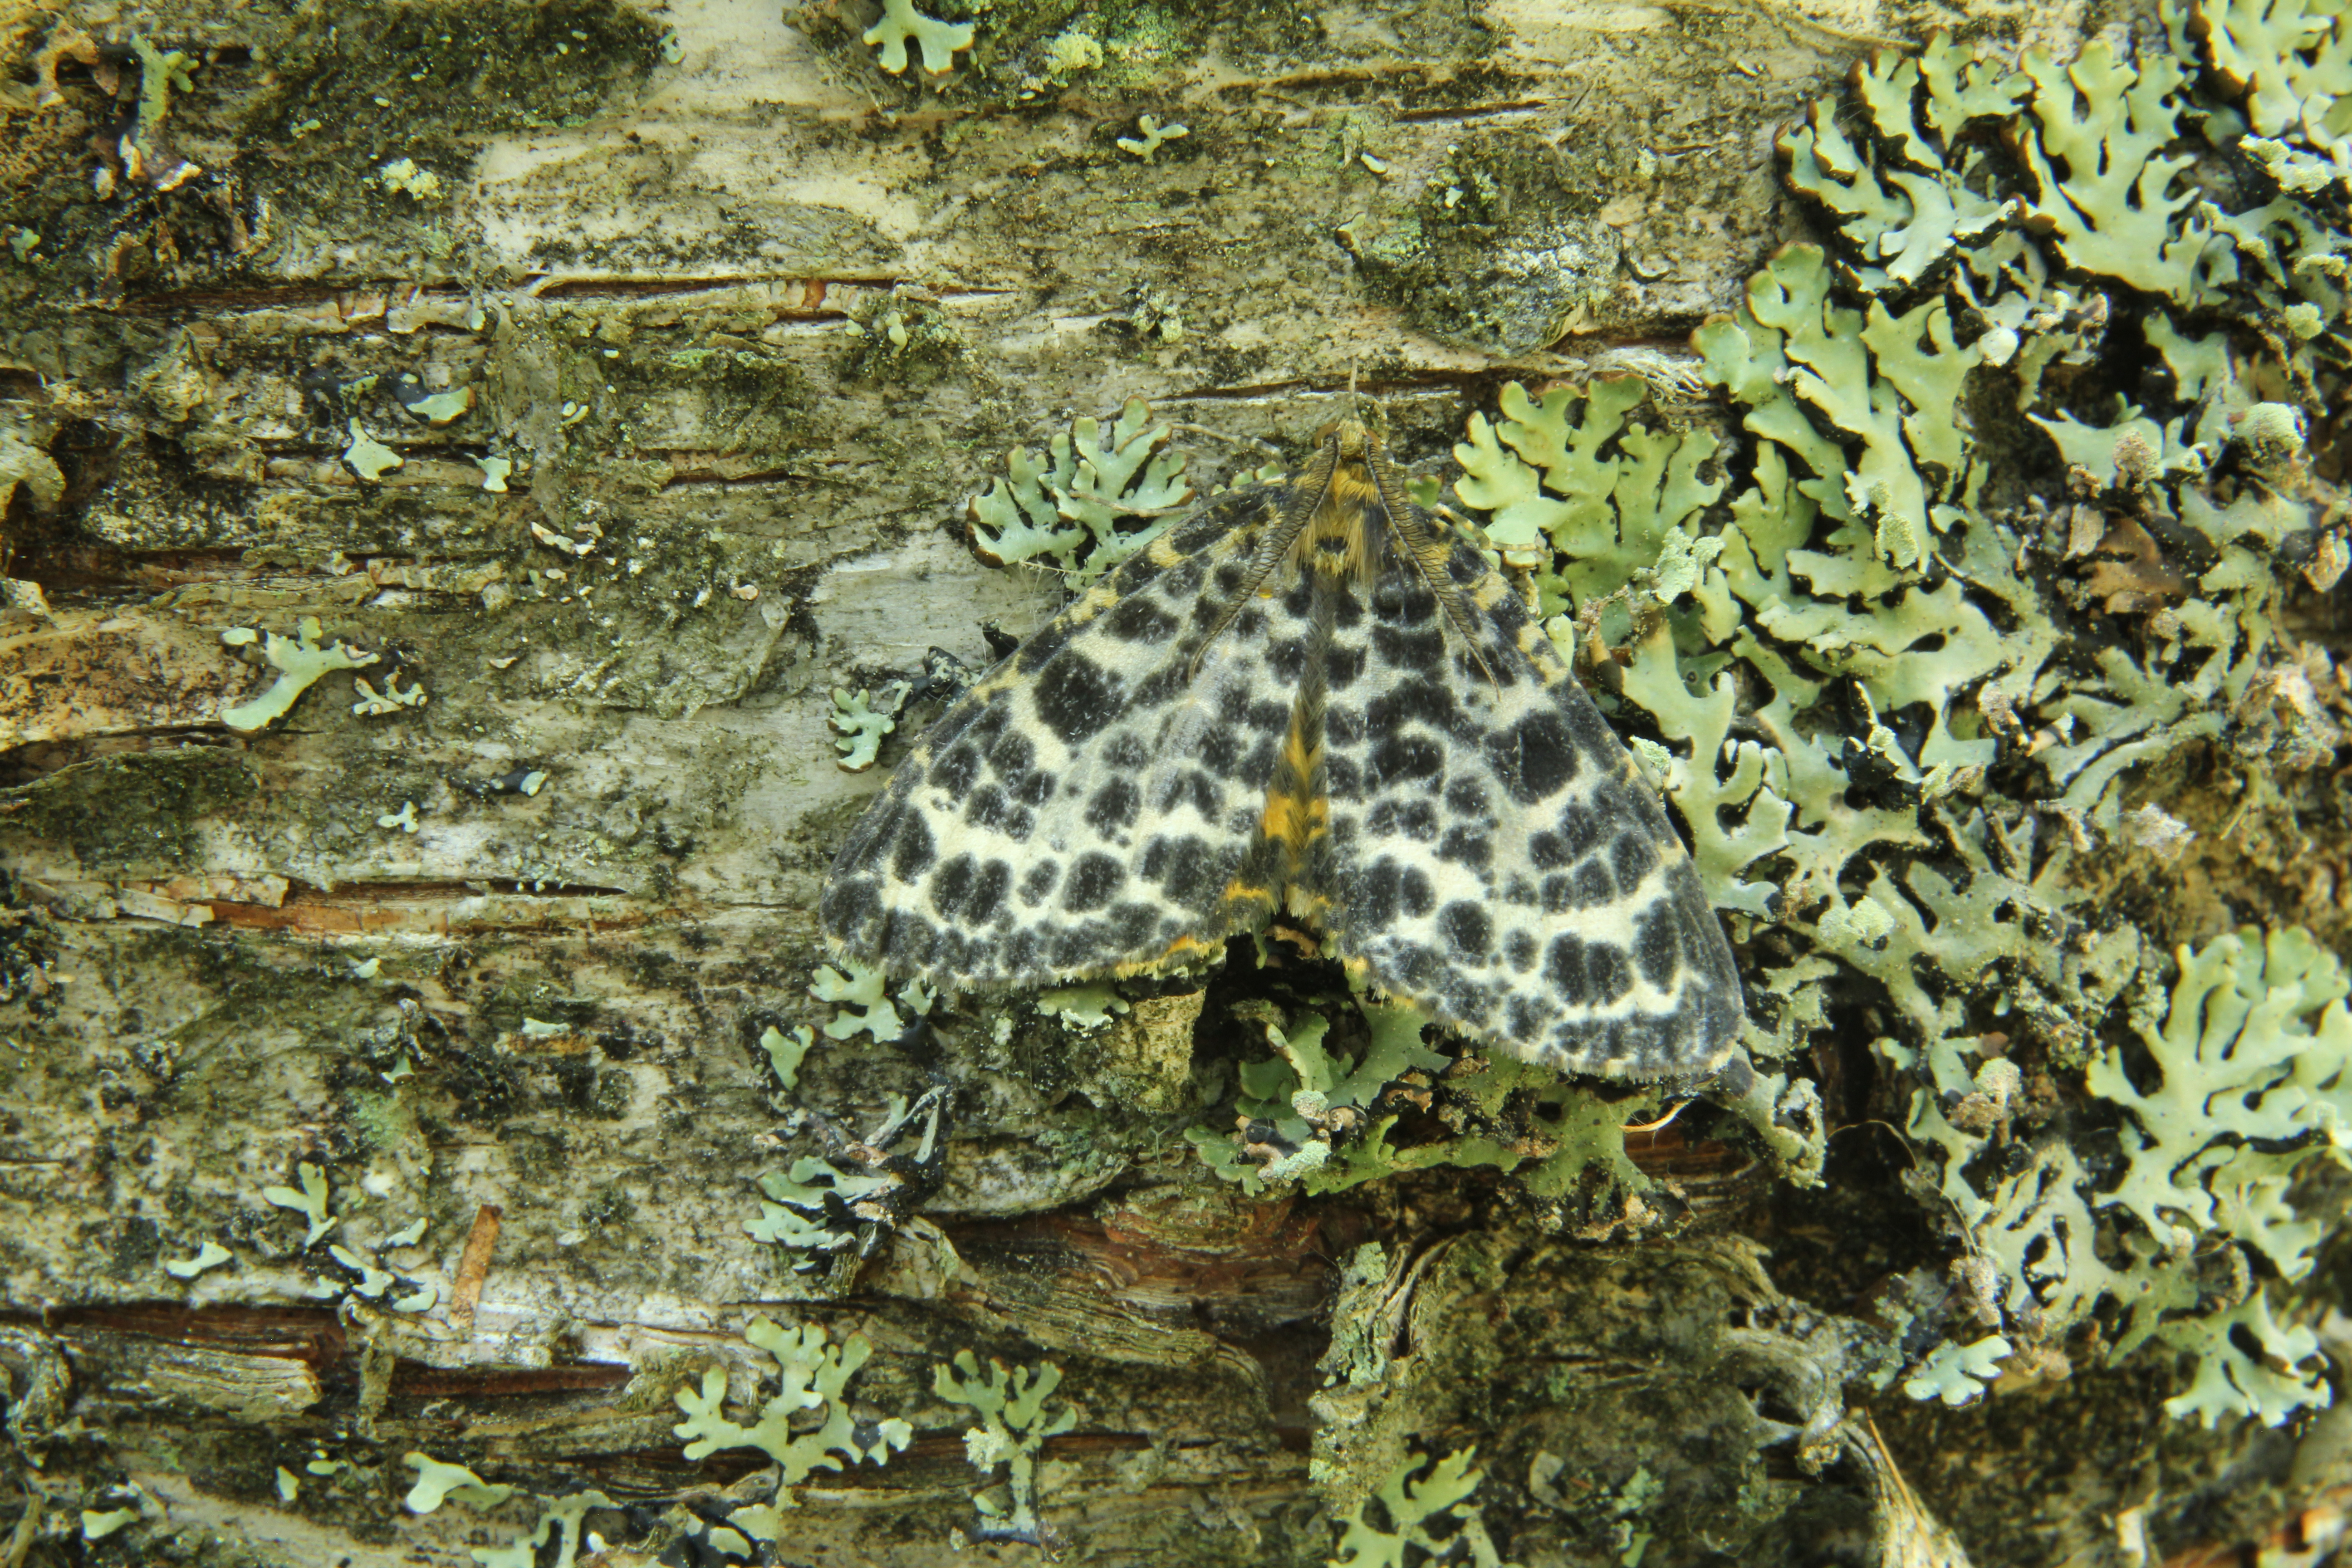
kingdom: Animalia
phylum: Arthropoda
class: Insecta
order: Lepidoptera
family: Geometridae
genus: Arichanna
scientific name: Arichanna melanaria
